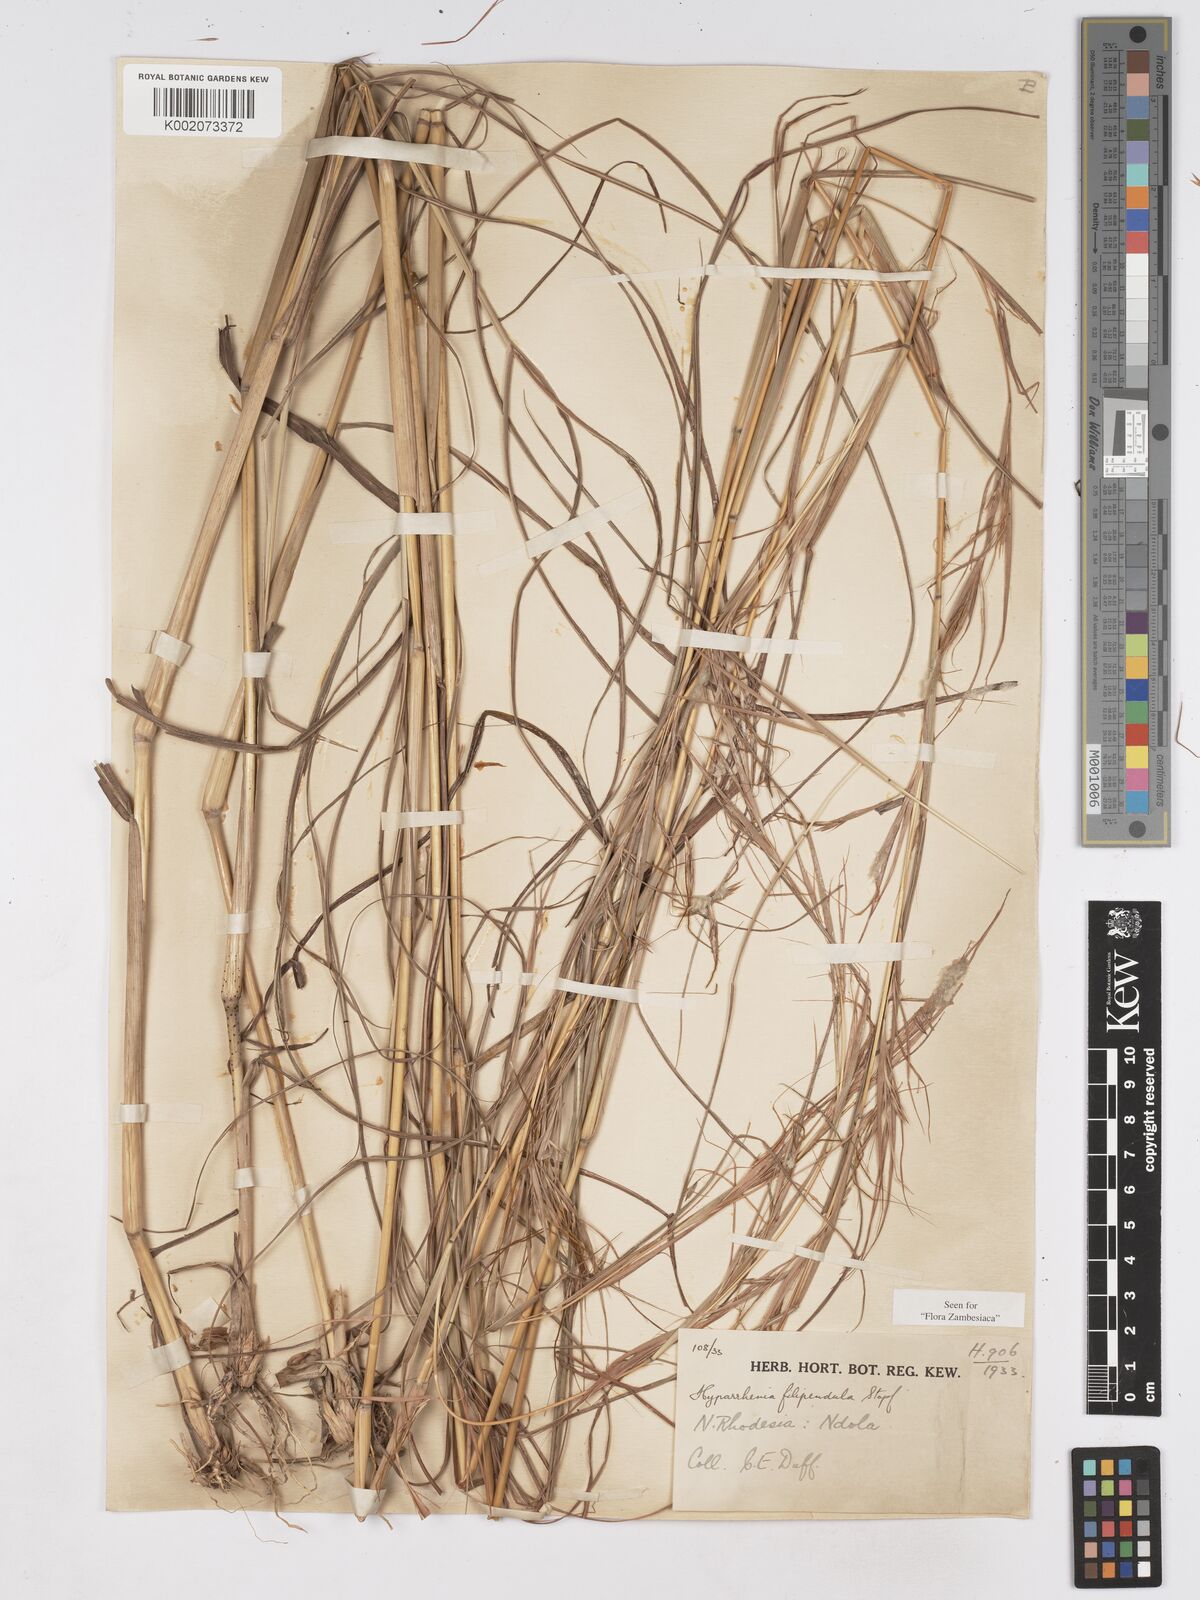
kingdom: Plantae
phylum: Tracheophyta
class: Liliopsida
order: Poales
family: Poaceae
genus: Hyparrhenia
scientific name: Hyparrhenia filipendula
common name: Tambookie grass
